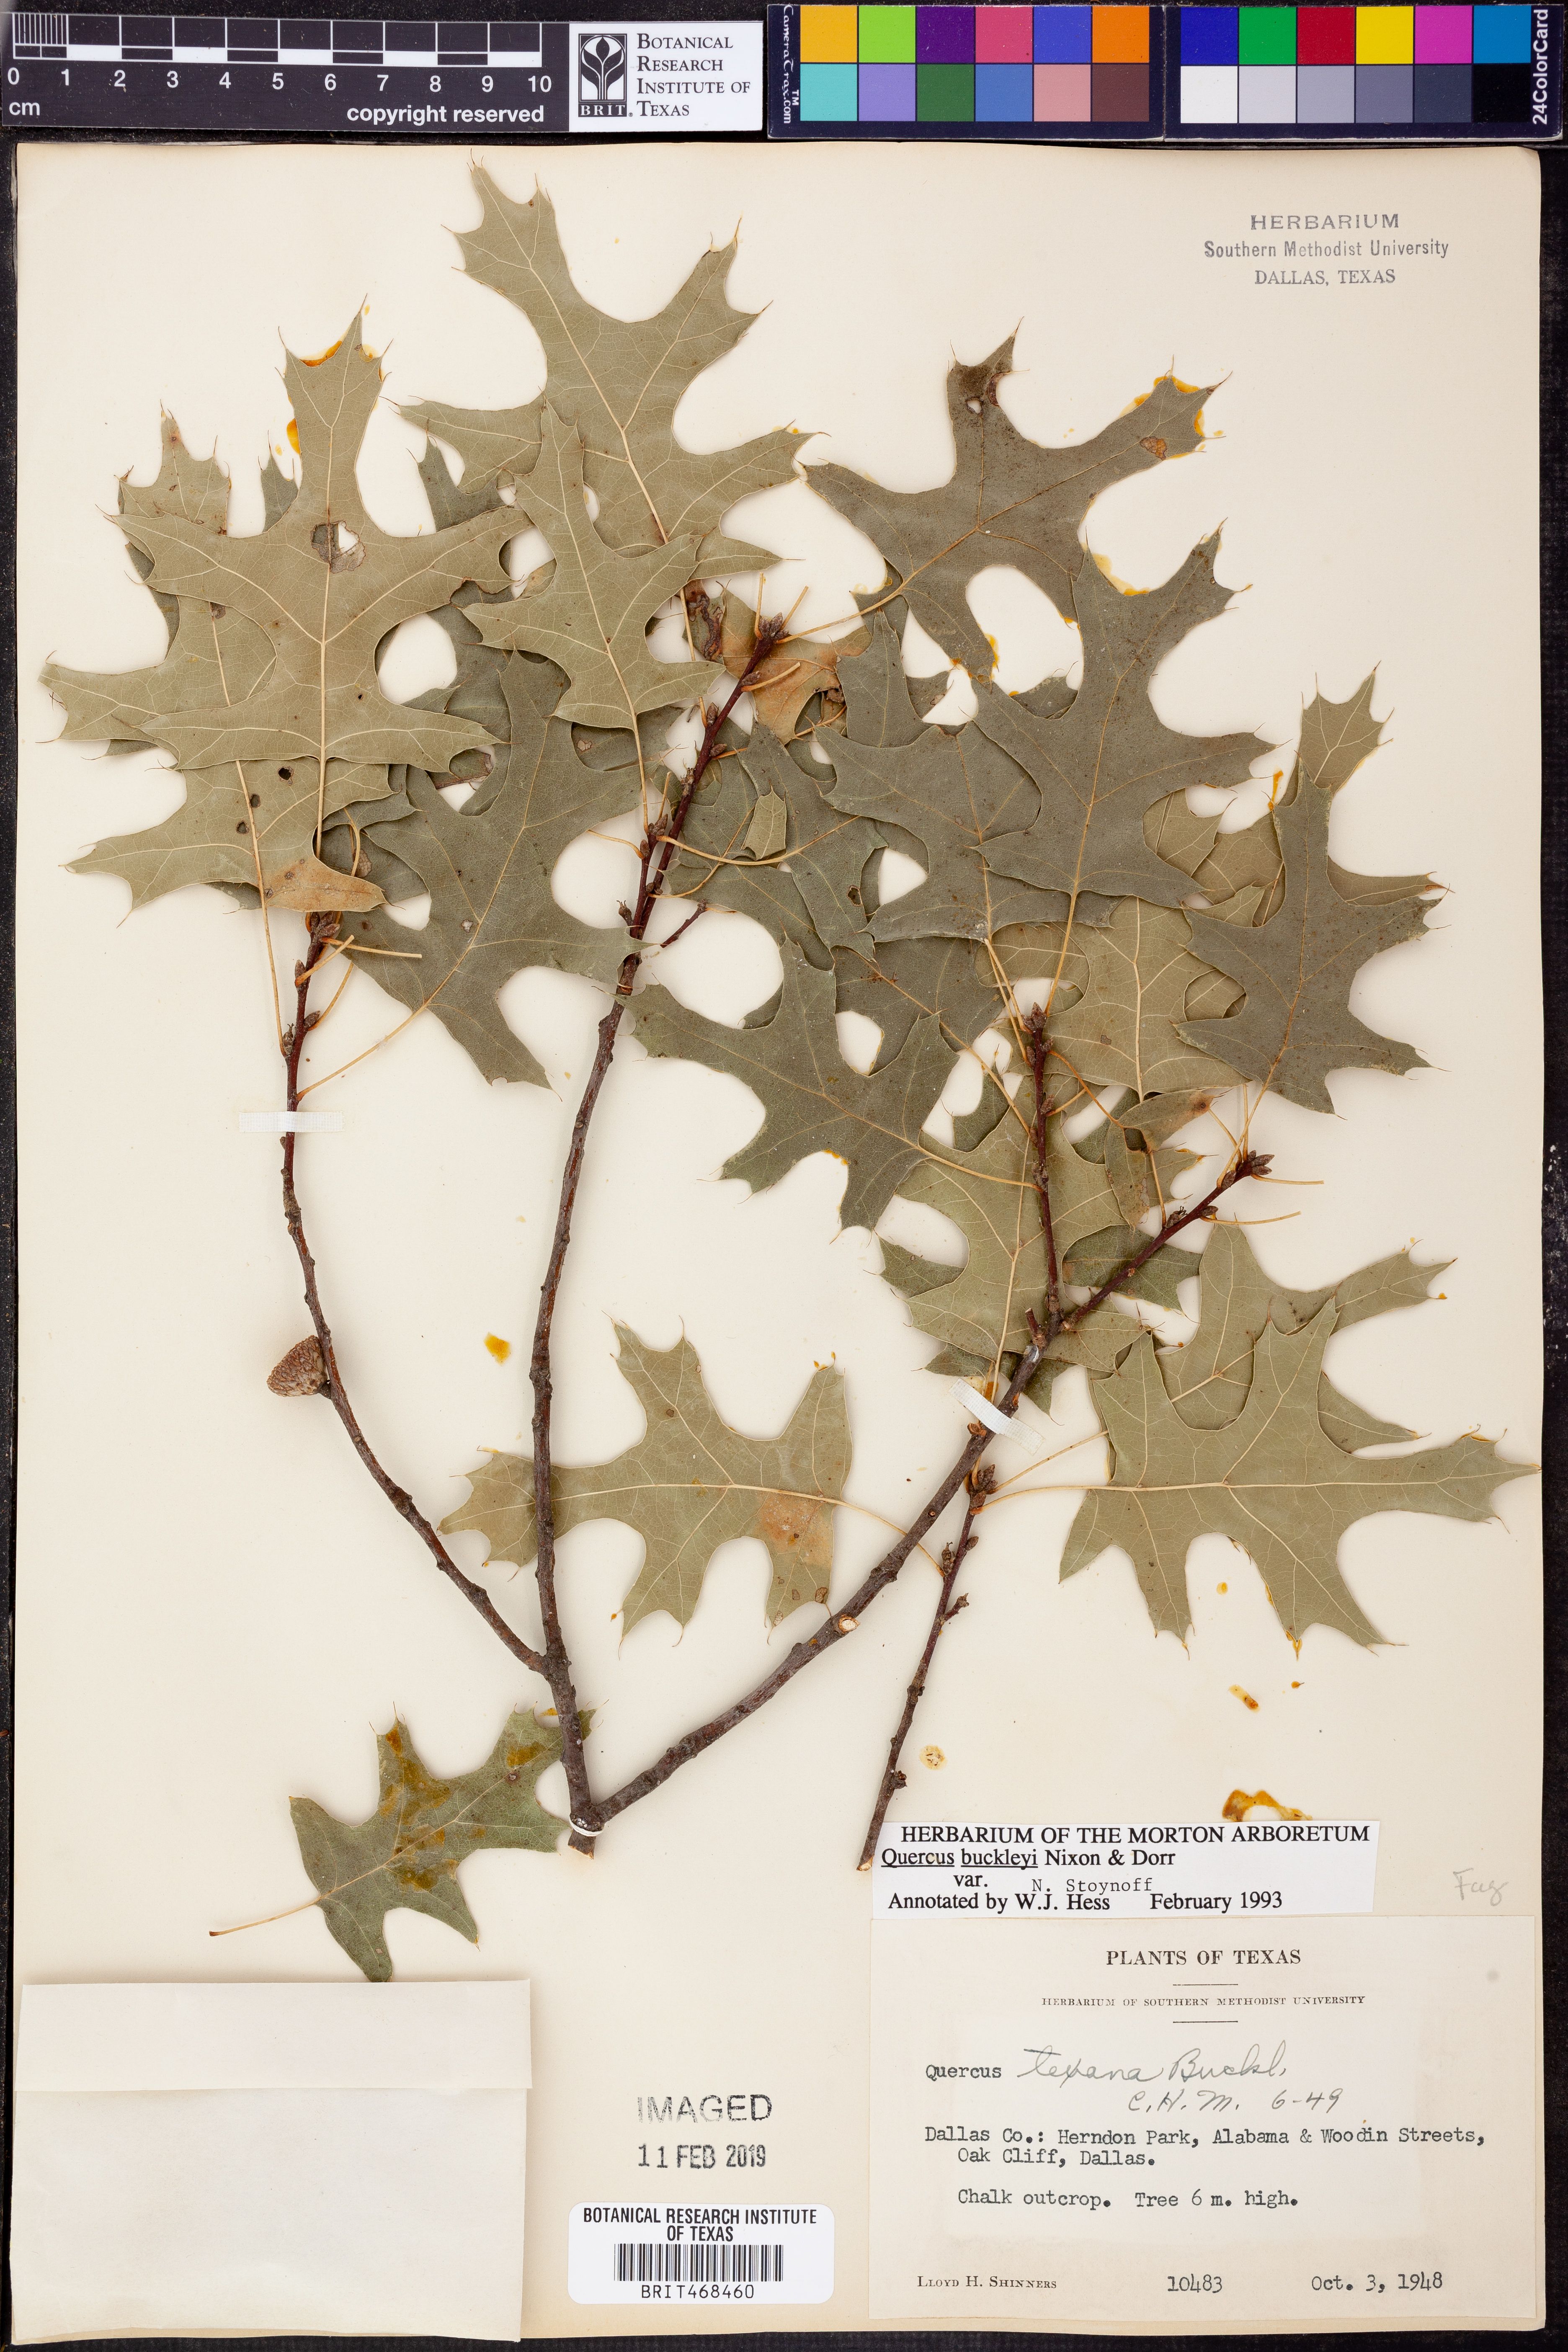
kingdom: Plantae
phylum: Tracheophyta
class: Magnoliopsida
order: Fagales
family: Fagaceae
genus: Quercus
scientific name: Quercus buckleyi
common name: Buckley oak
